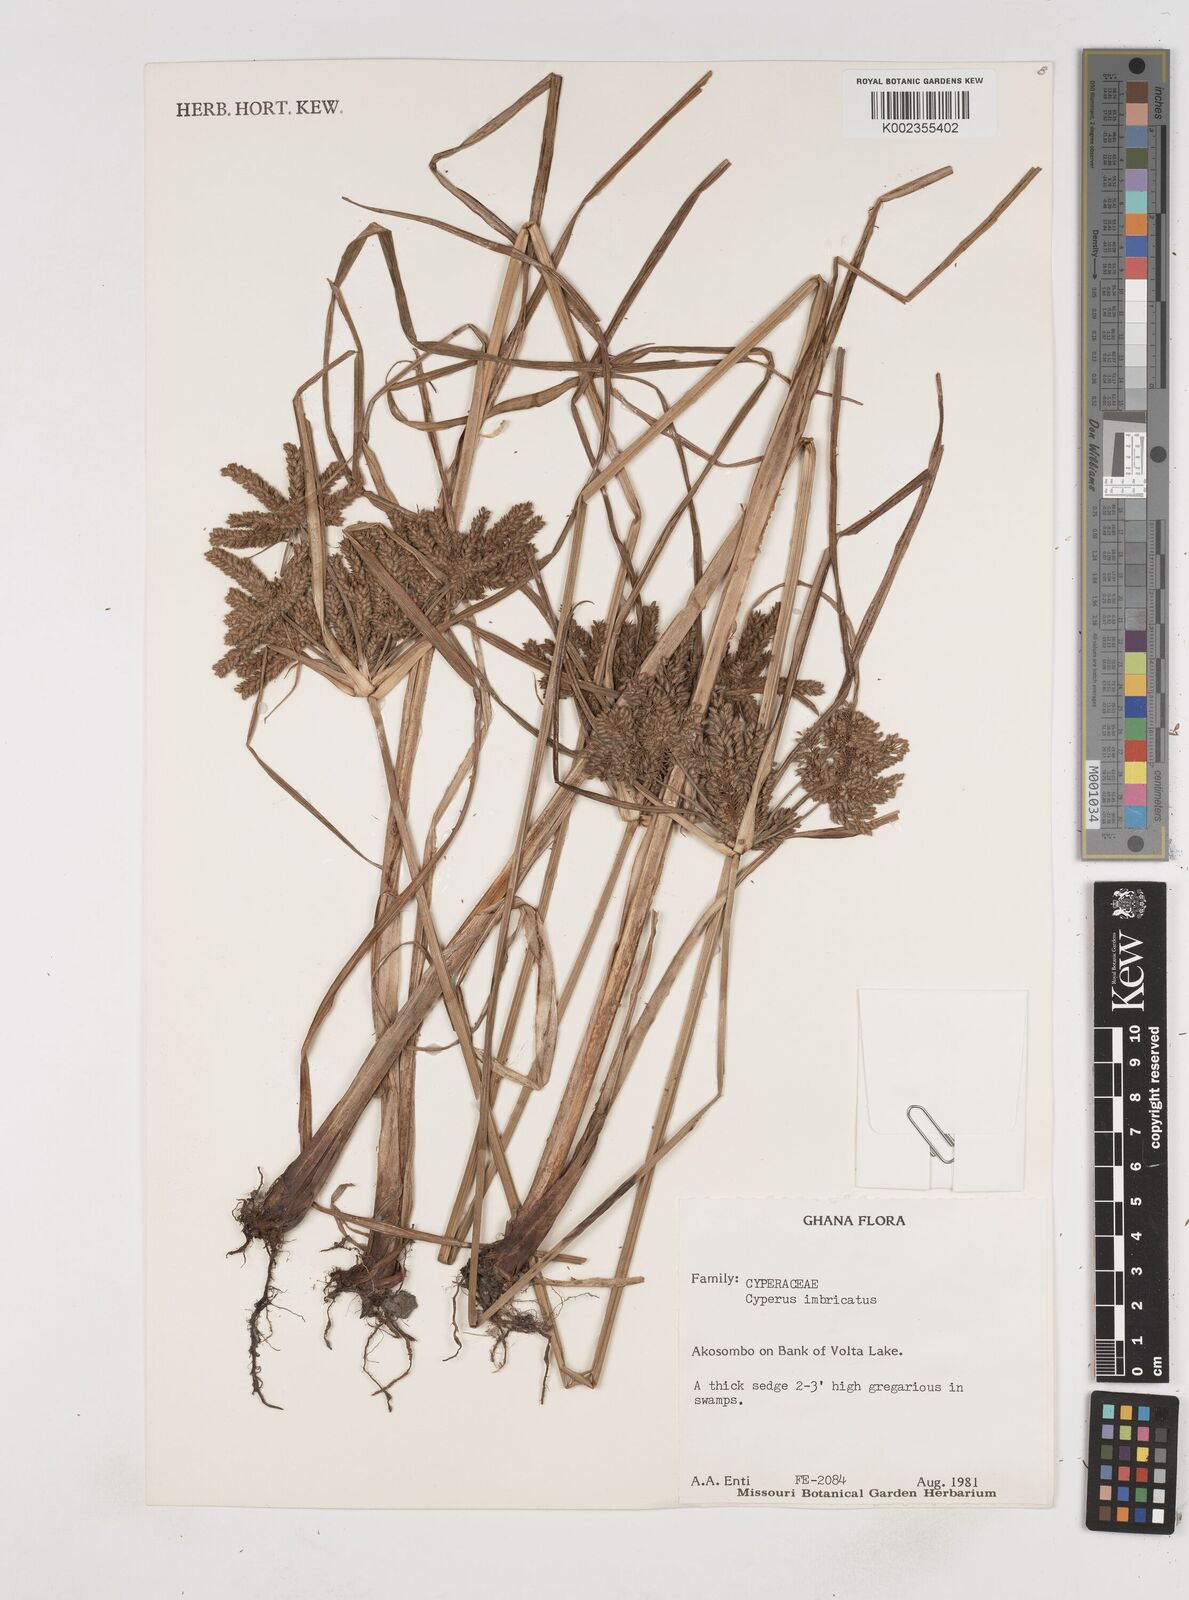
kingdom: Plantae
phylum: Tracheophyta
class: Liliopsida
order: Poales
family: Cyperaceae
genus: Cyperus
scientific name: Cyperus imbricatus
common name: Shingle flatsedge
